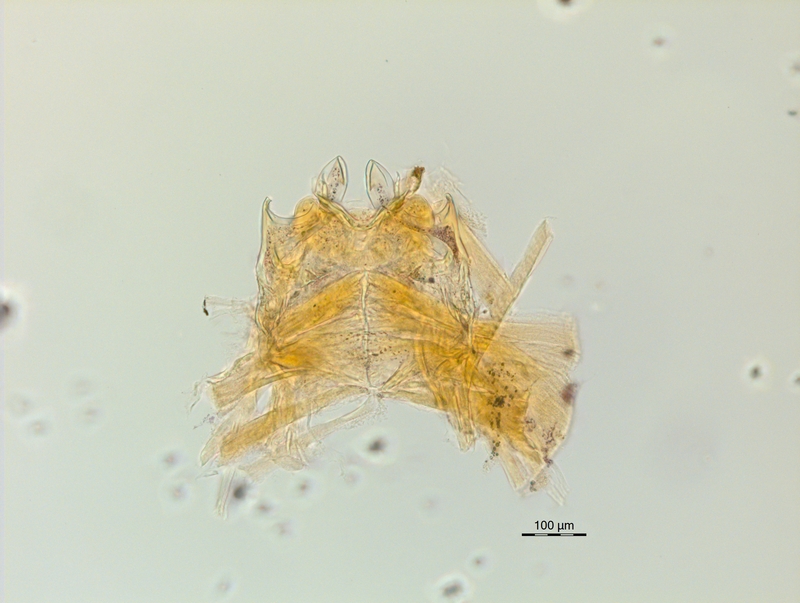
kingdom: Animalia
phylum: Arthropoda
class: Diplopoda
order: Chordeumatida
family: Craspedosomatidae
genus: Ochogona
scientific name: Ochogona euganeorum
